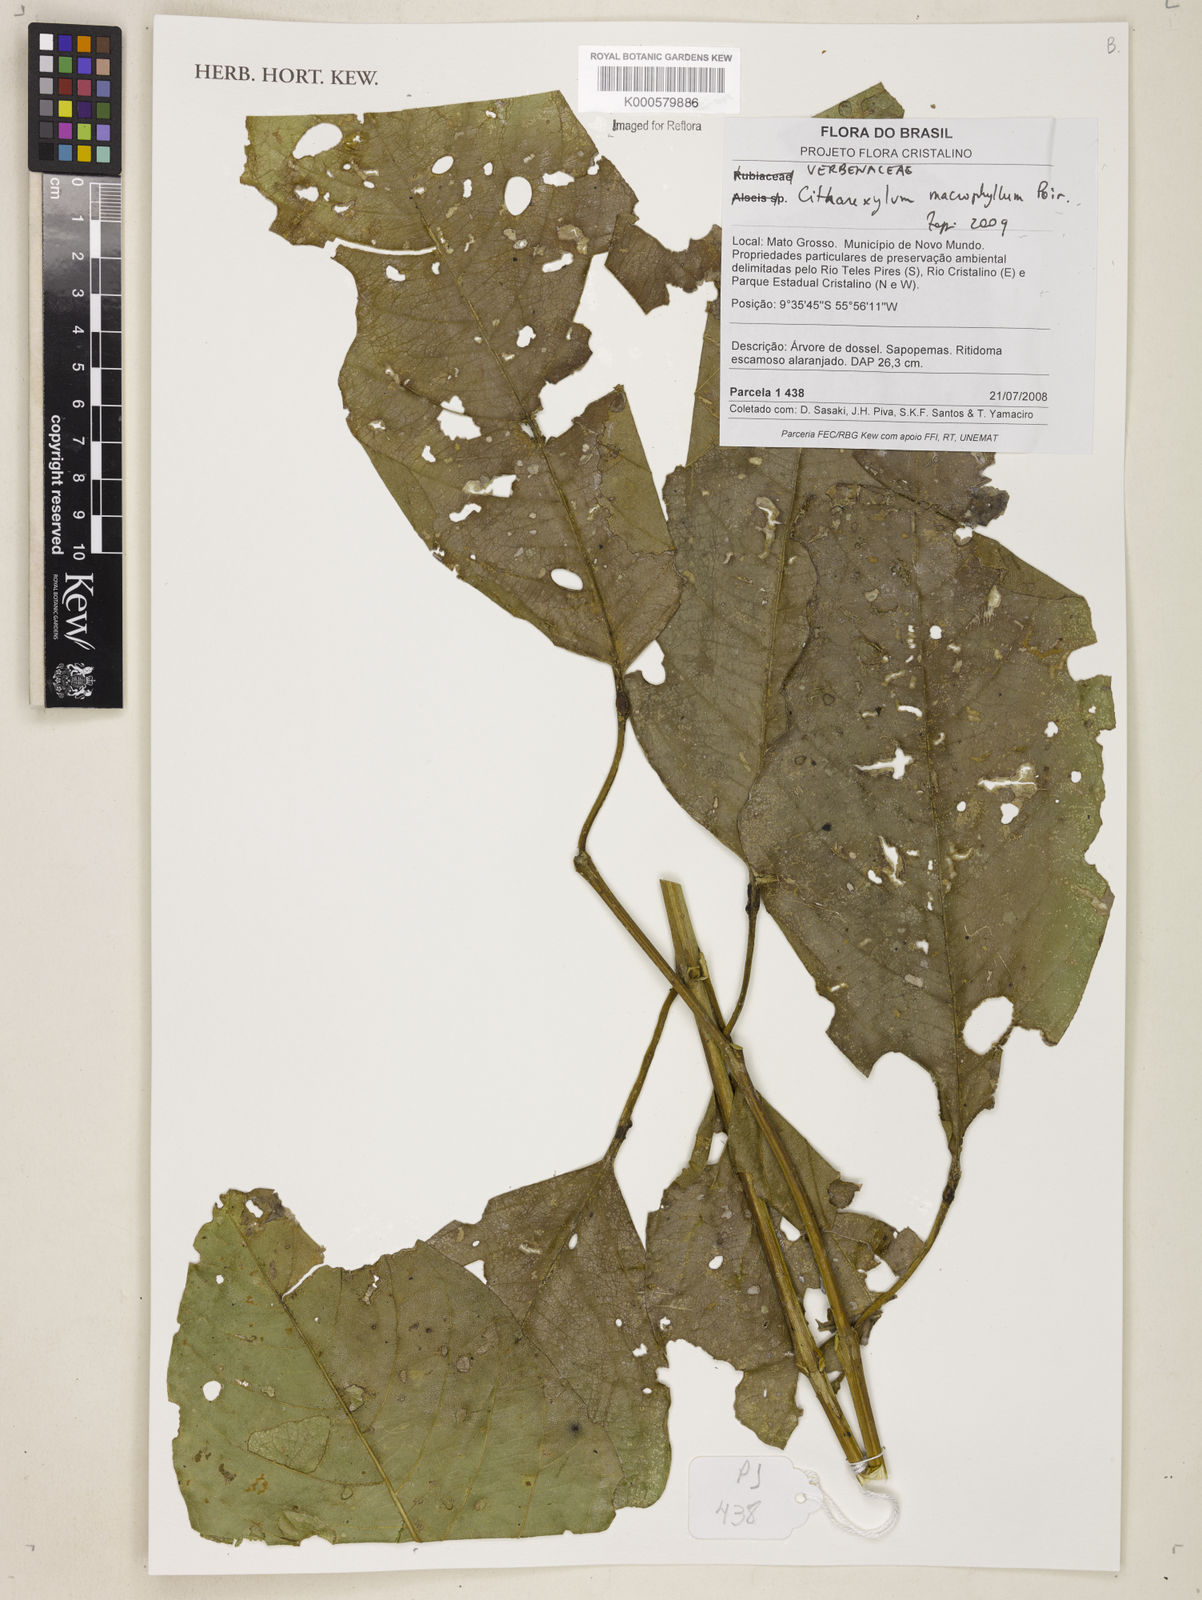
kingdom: Plantae
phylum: Tracheophyta
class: Magnoliopsida
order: Lamiales
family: Verbenaceae
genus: Citharexylum
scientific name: Citharexylum spinosum
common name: Fiddlewood
